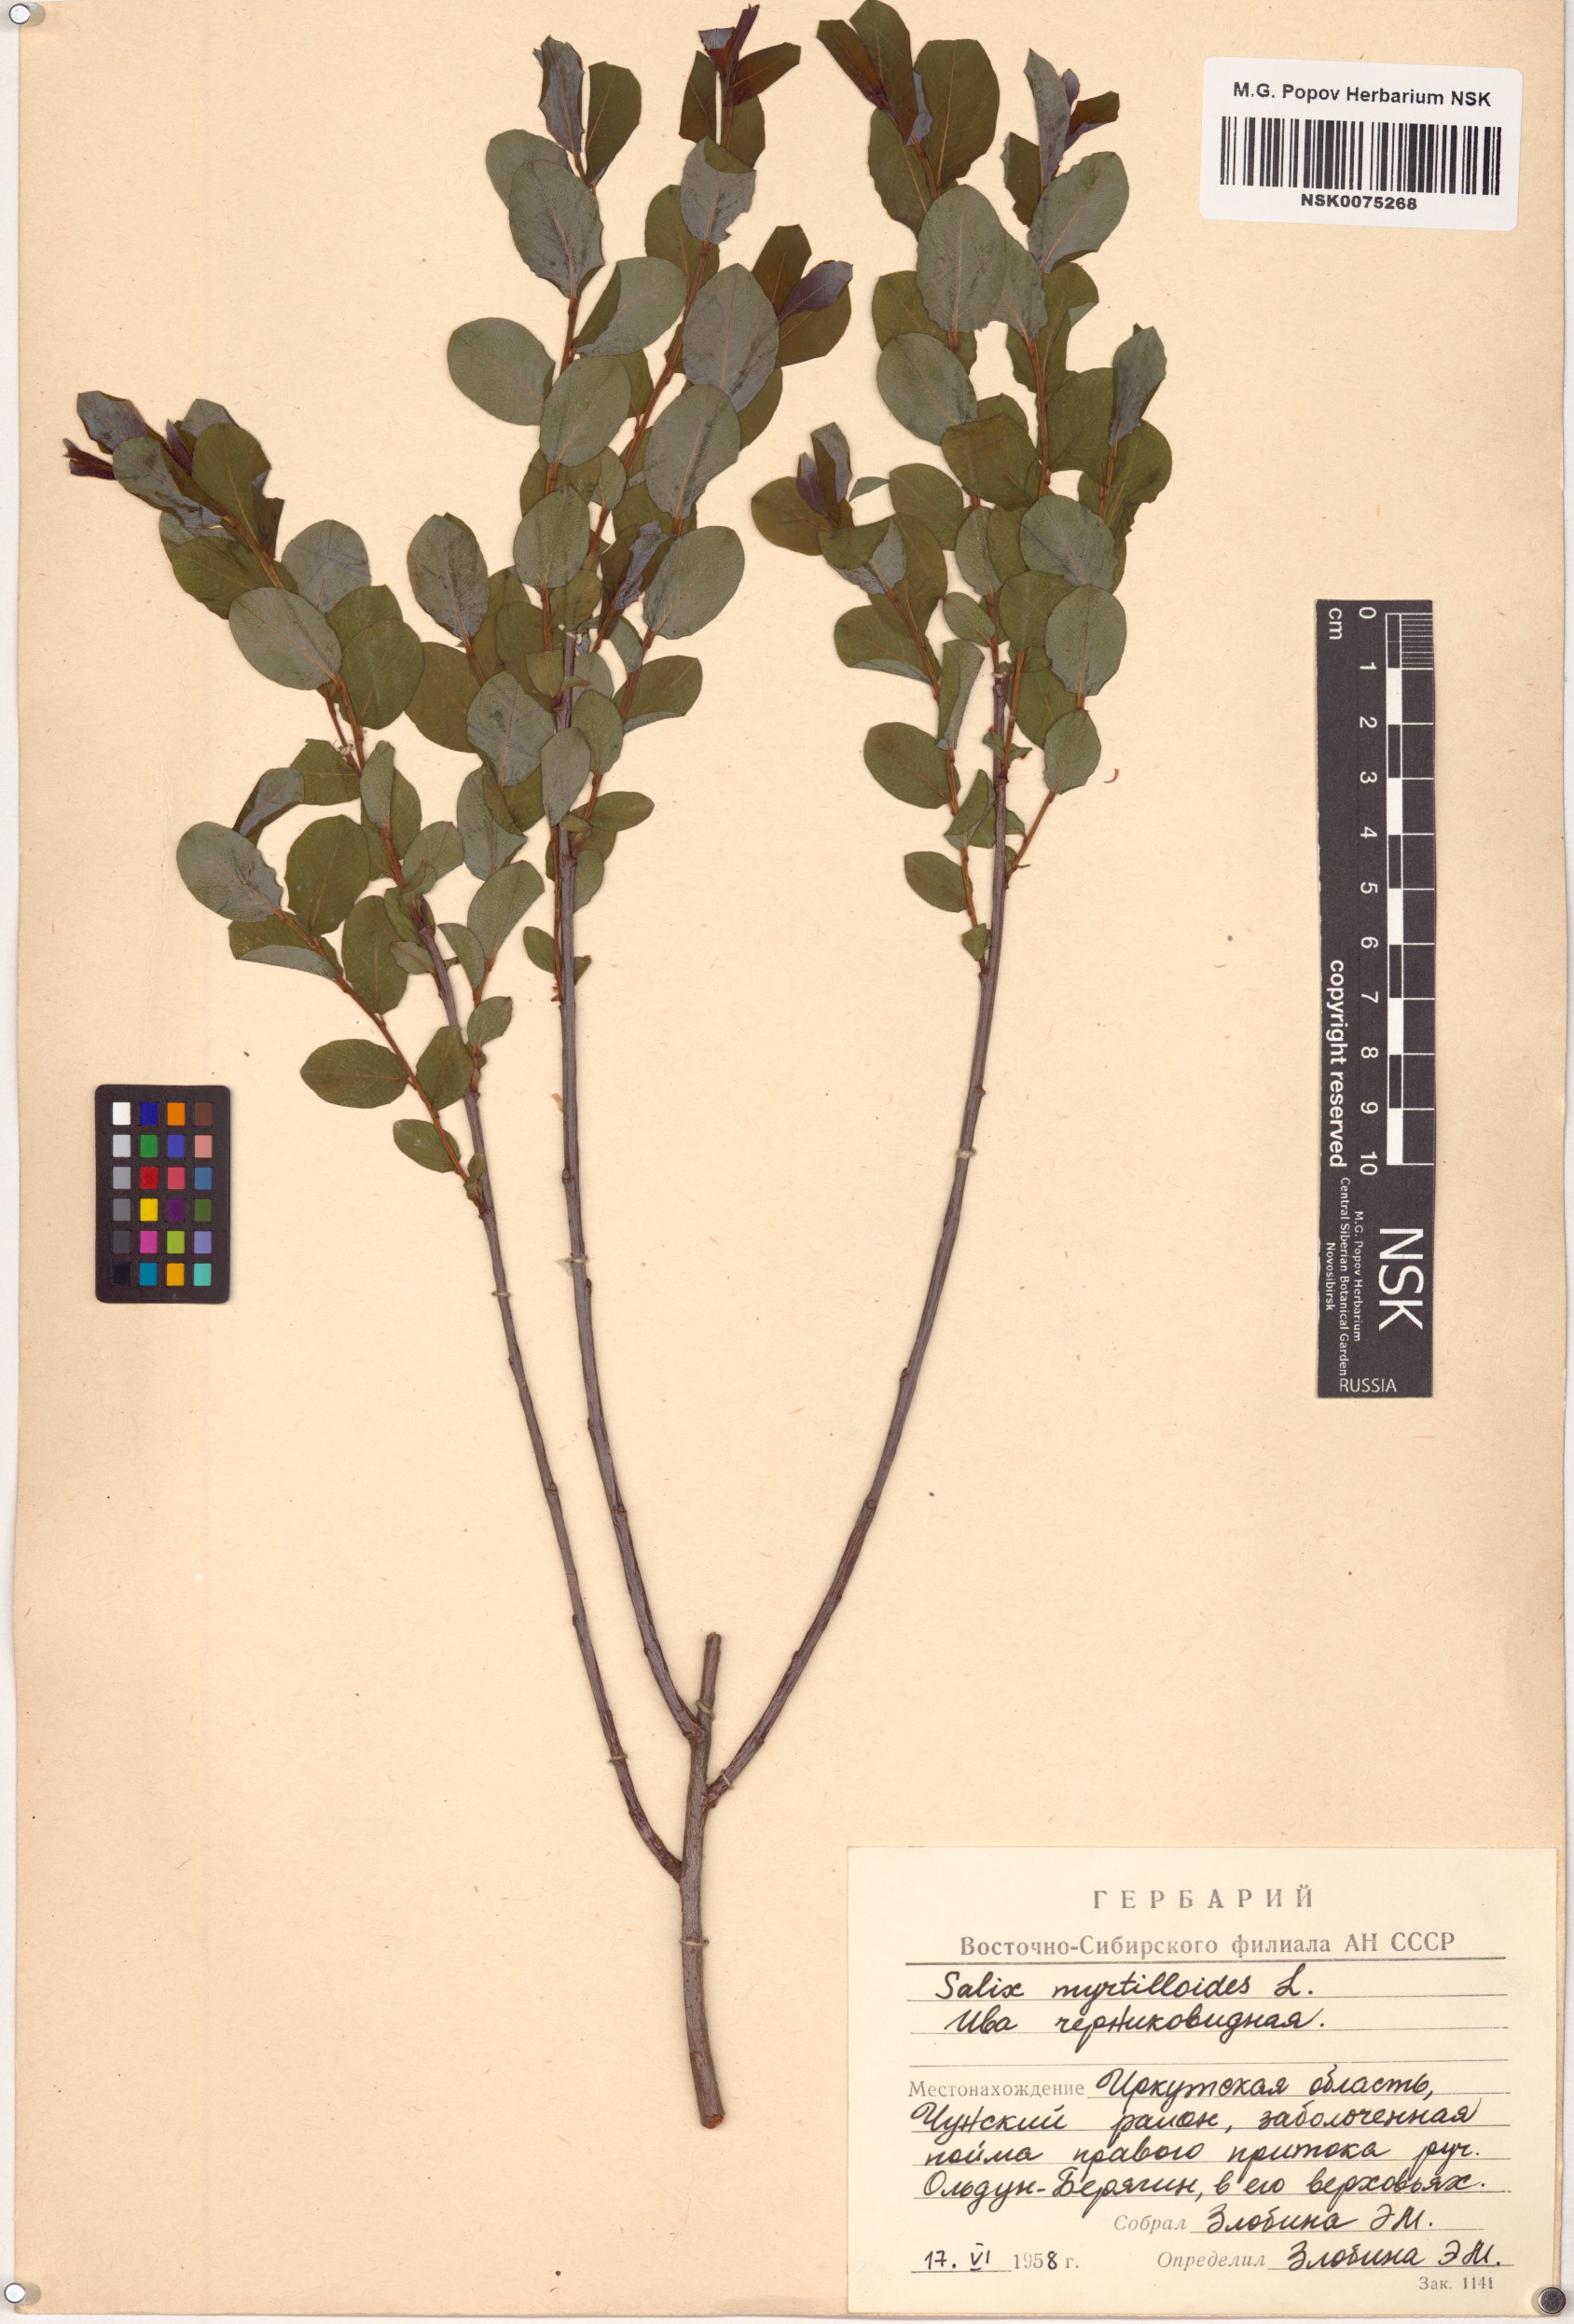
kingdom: Plantae
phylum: Tracheophyta
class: Magnoliopsida
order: Malpighiales
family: Salicaceae
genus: Salix
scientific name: Salix myrtilloides
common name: Myrtle-leaved willow
